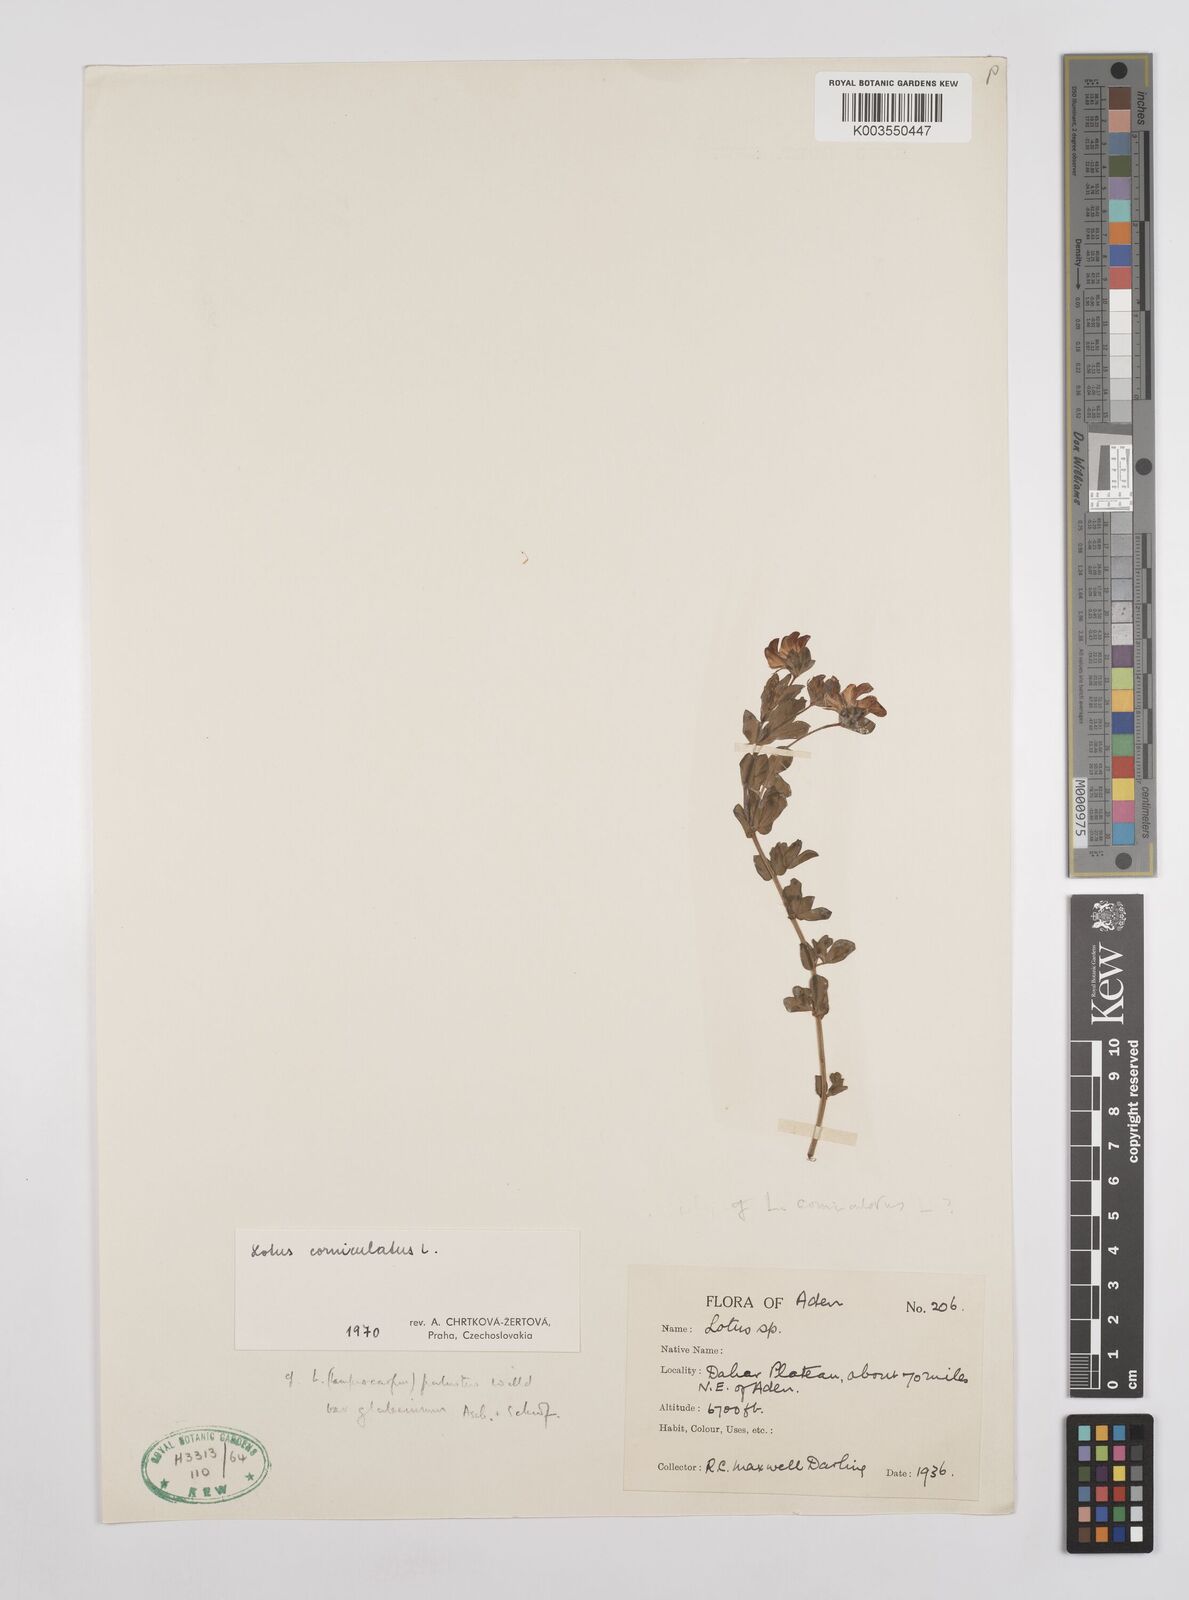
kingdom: Plantae
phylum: Tracheophyta
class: Magnoliopsida
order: Fabales
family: Fabaceae
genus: Lotus
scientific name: Lotus palustris
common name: Large birds-foot trefoil
